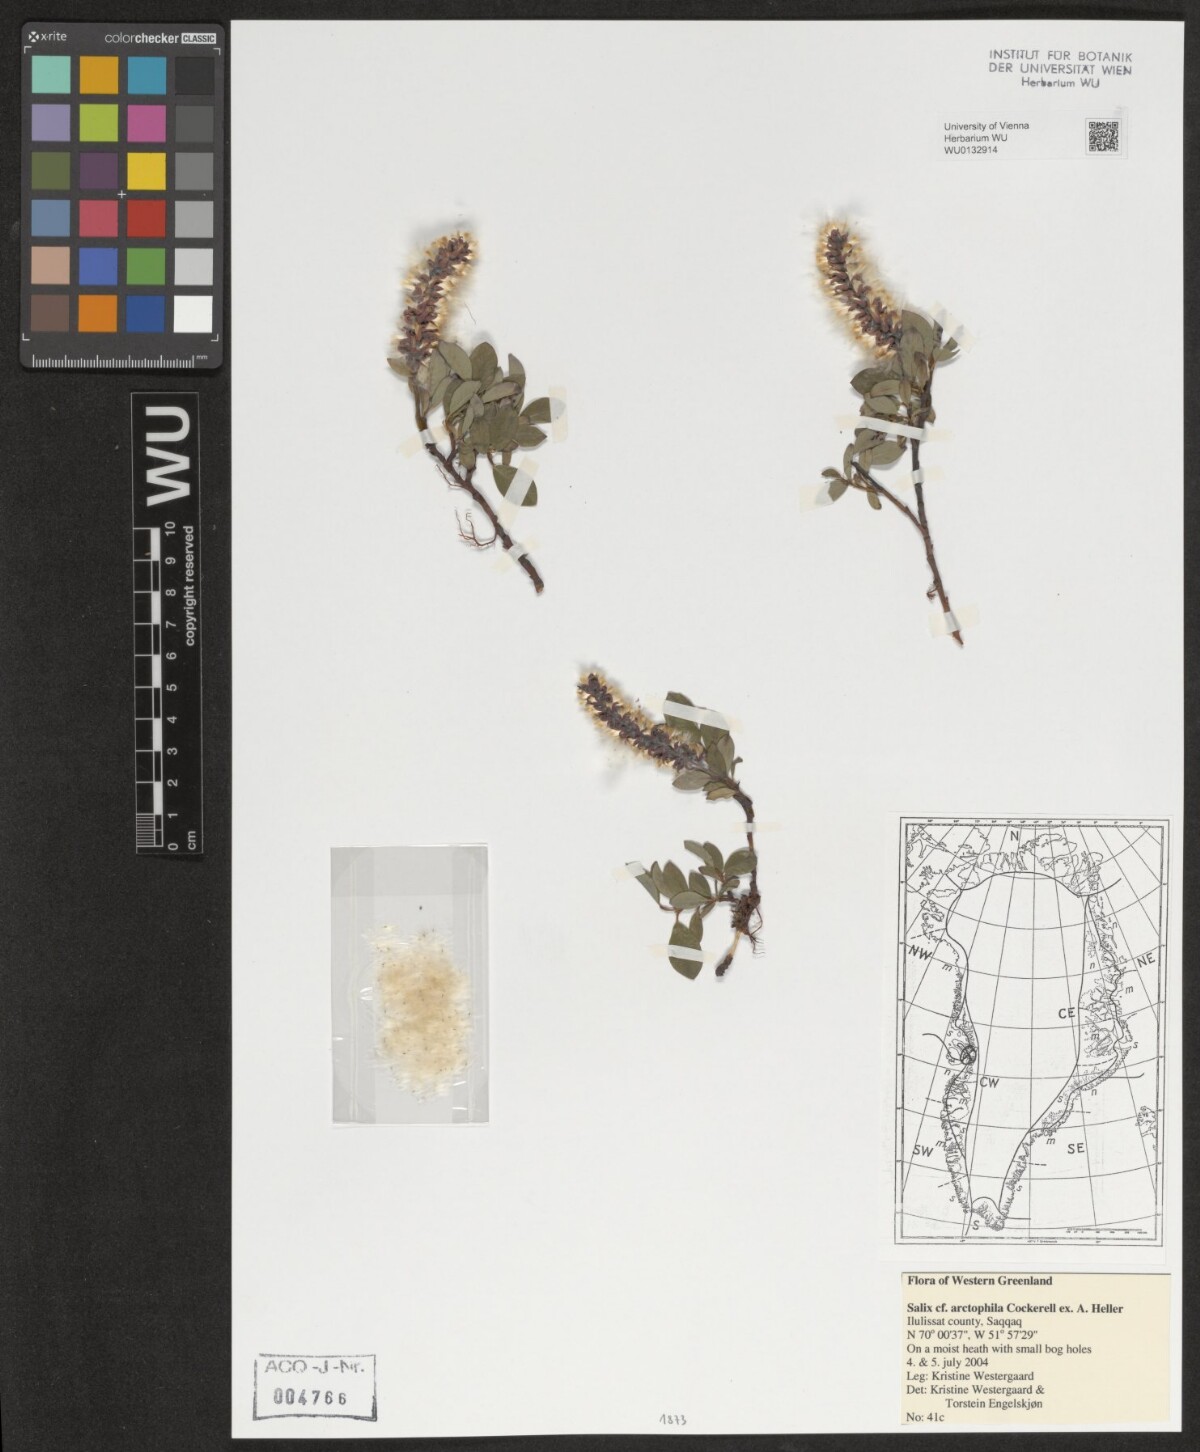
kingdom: Plantae
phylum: Tracheophyta
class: Magnoliopsida
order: Malpighiales
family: Salicaceae
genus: Salix
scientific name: Salix arctophila
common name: Greenland willow
